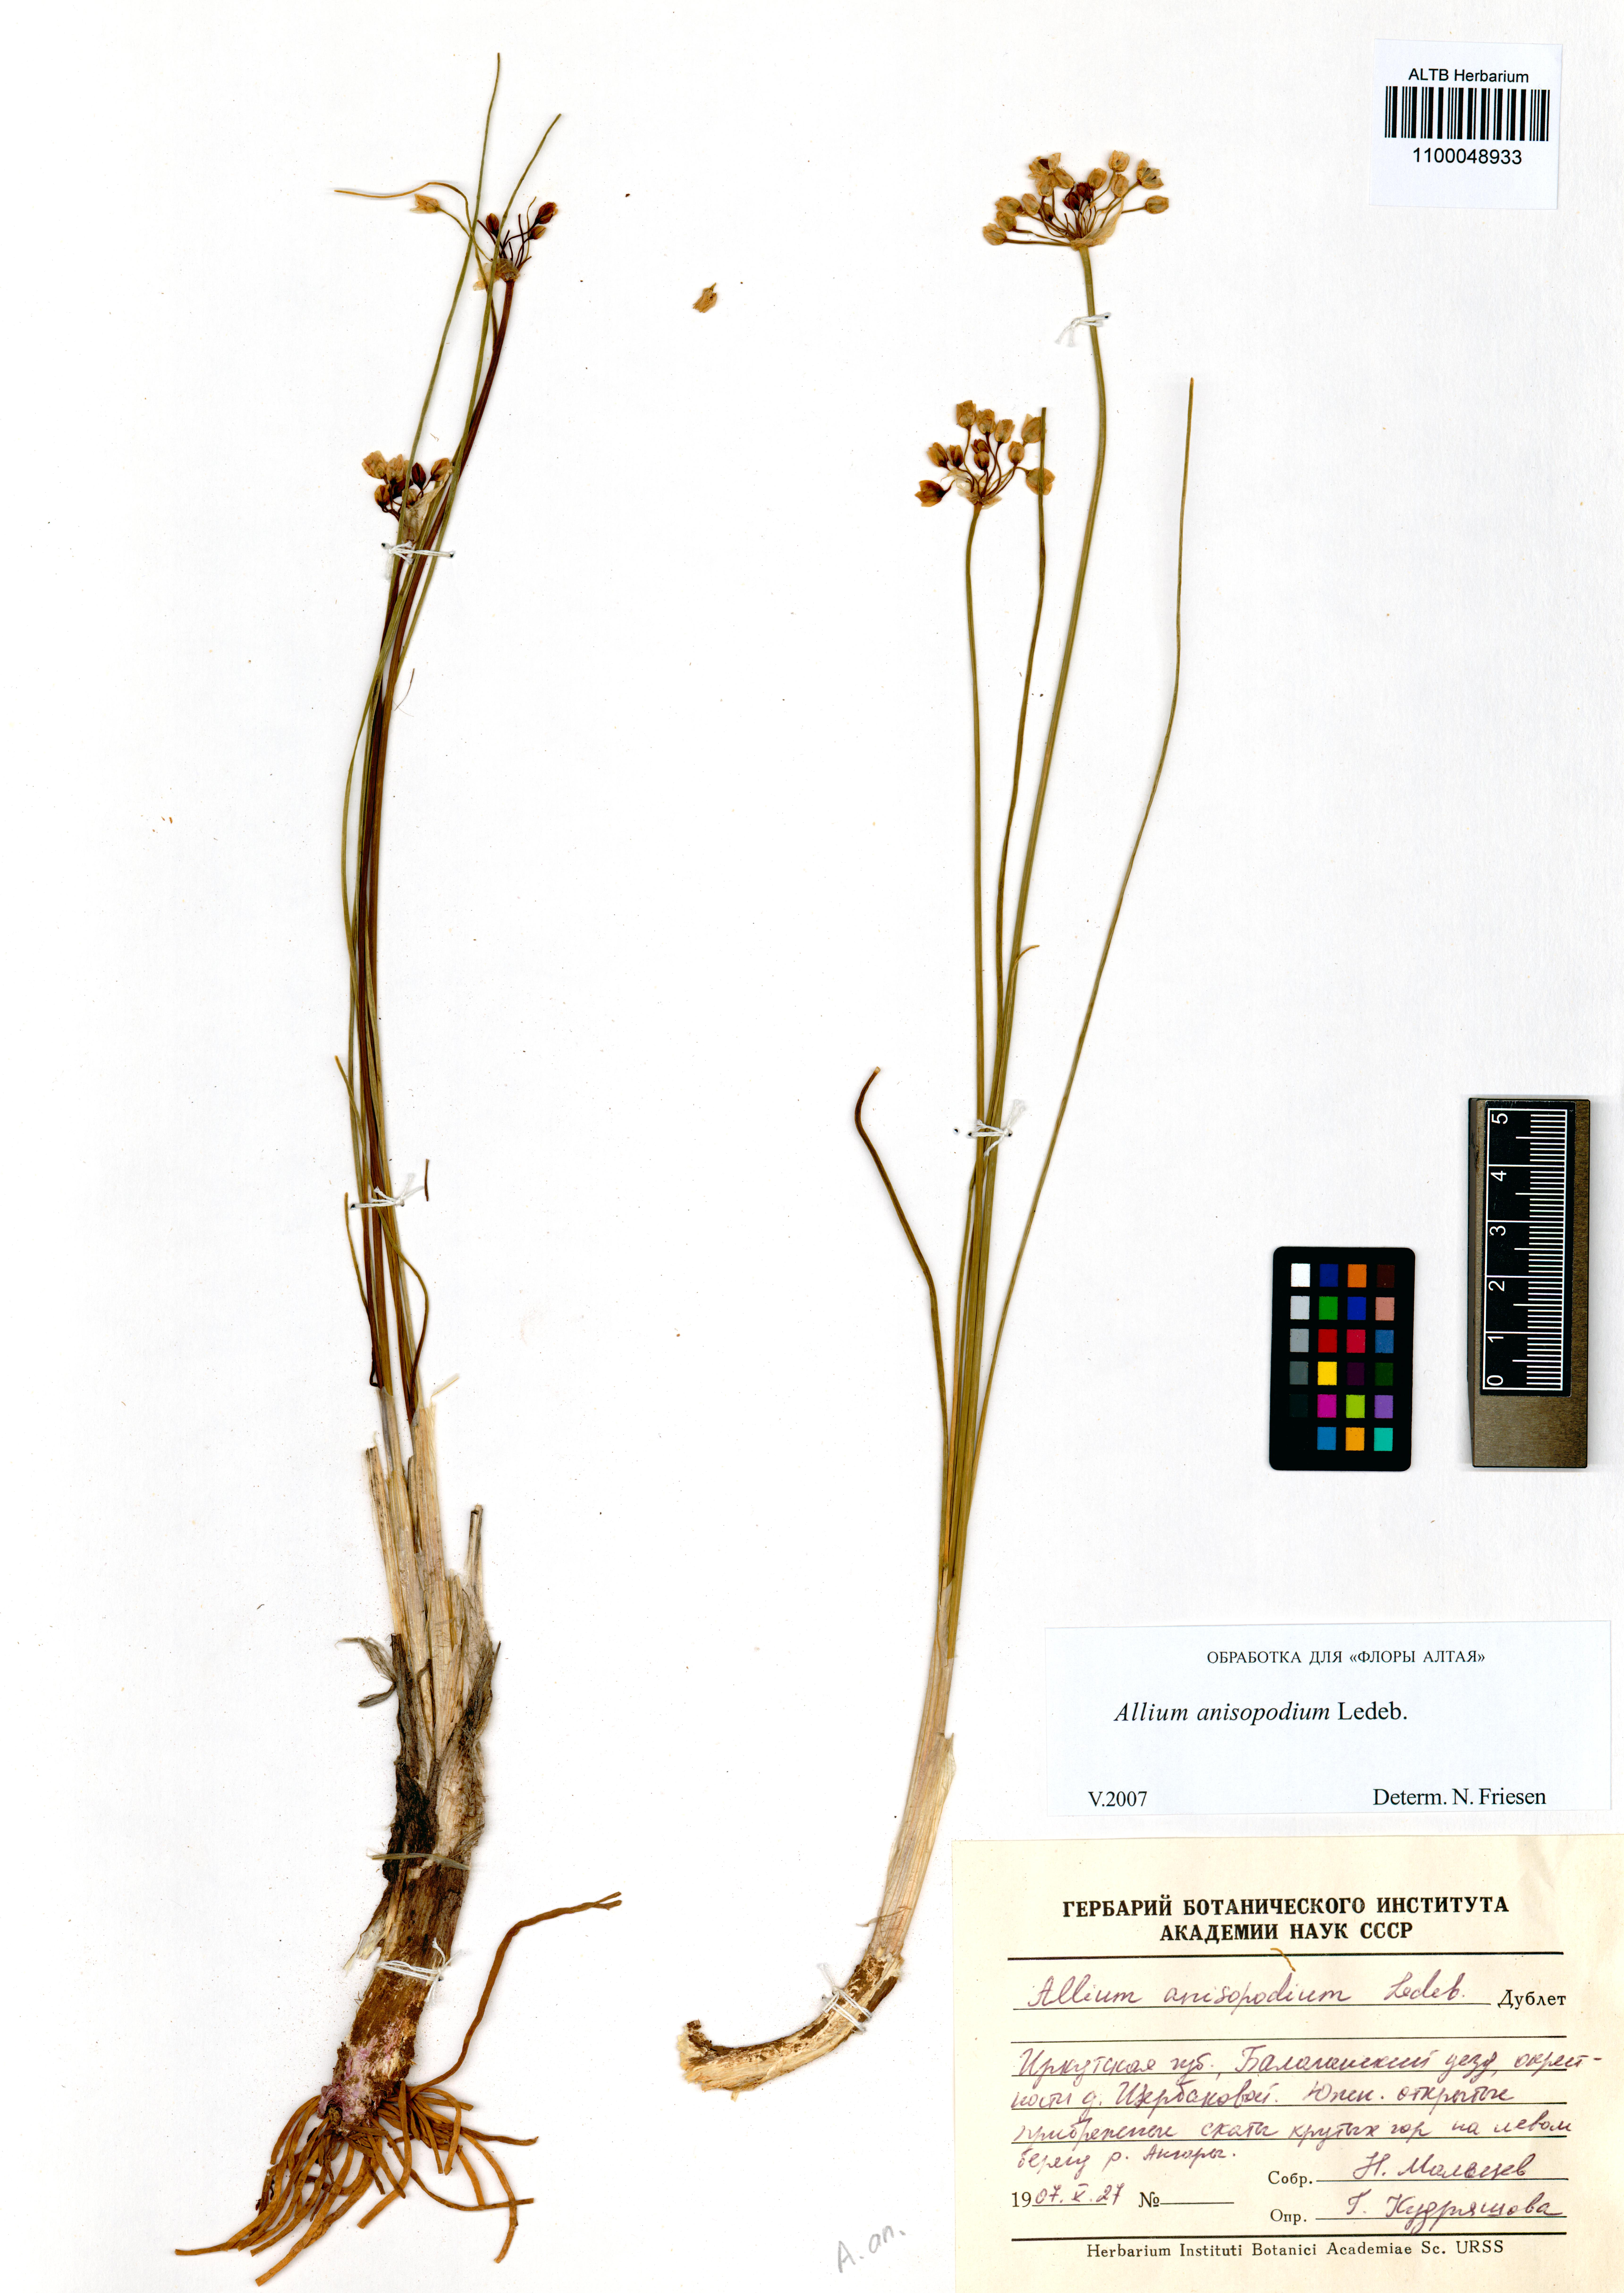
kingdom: Plantae
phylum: Tracheophyta
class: Liliopsida
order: Asparagales
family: Amaryllidaceae
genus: Allium
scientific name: Allium anisopodium
